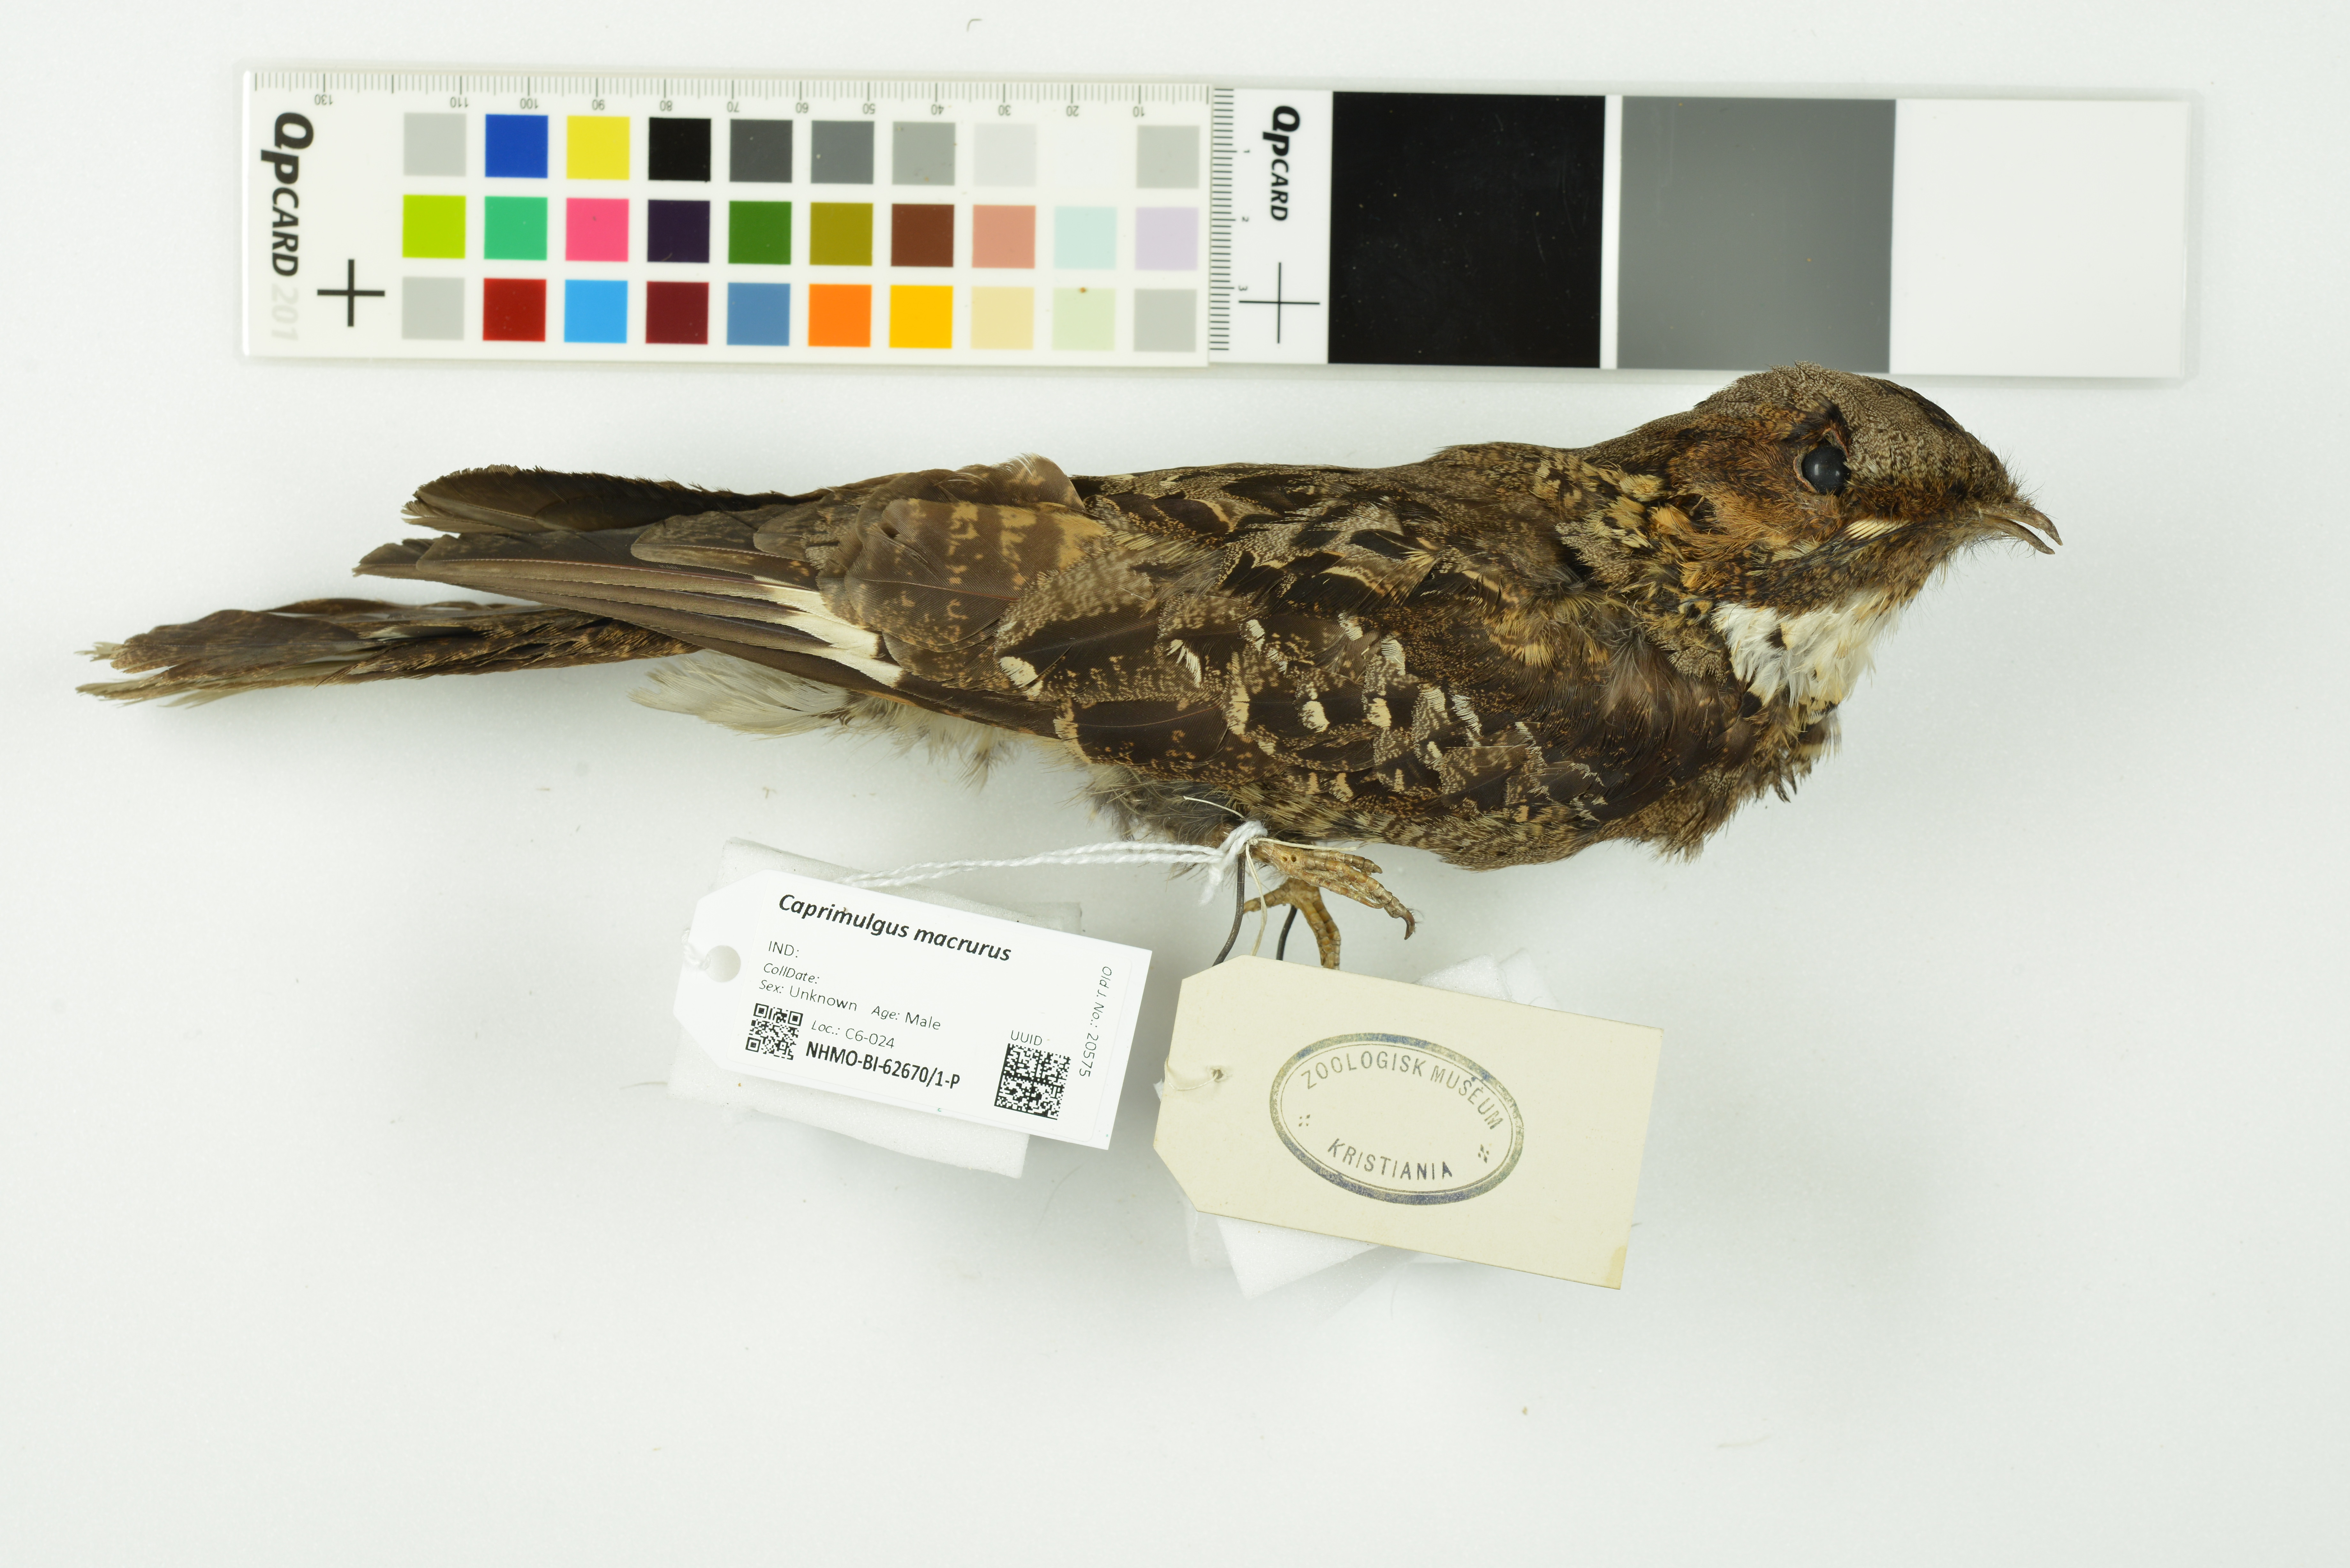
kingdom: Animalia
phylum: Chordata
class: Aves
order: Caprimulgiformes
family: Caprimulgidae
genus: Caprimulgus
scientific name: Caprimulgus macrurus
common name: Large-tailed nightjar
